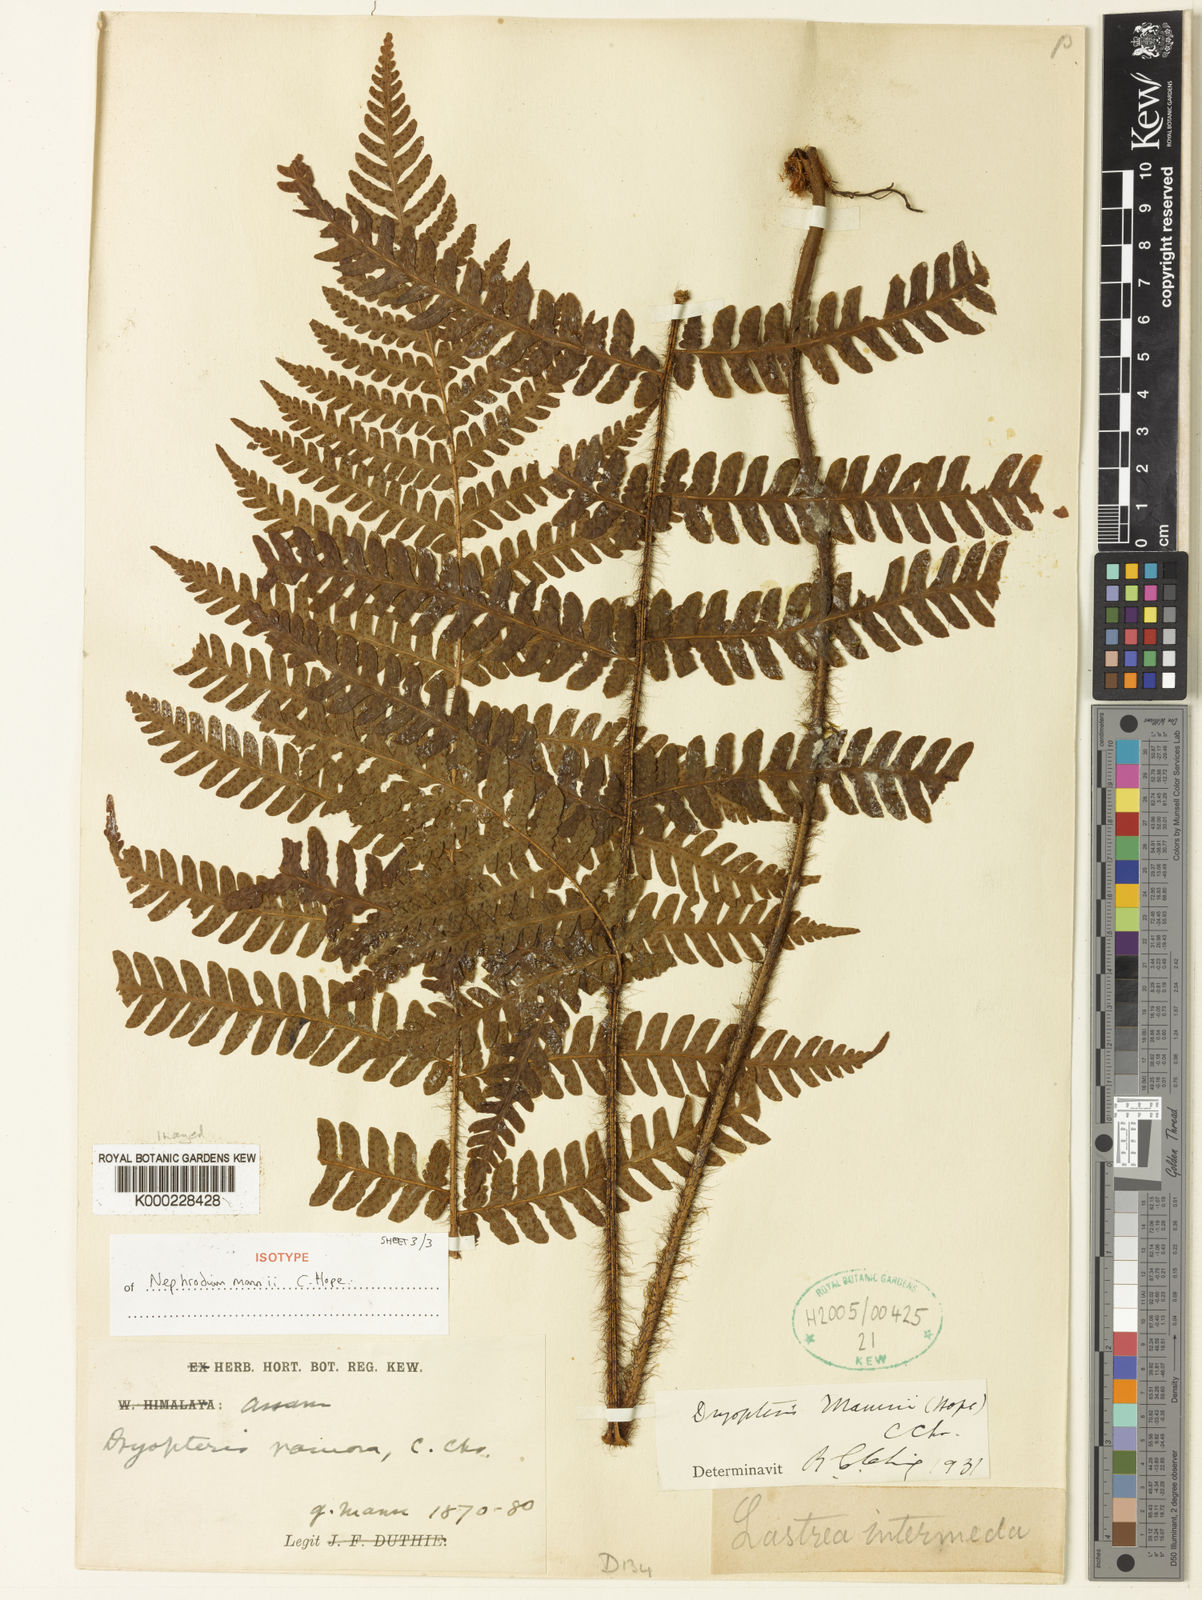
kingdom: Plantae
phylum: Tracheophyta
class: Polypodiopsida
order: Polypodiales
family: Dryopteridaceae
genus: Ctenitis
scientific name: Ctenitis mannii
